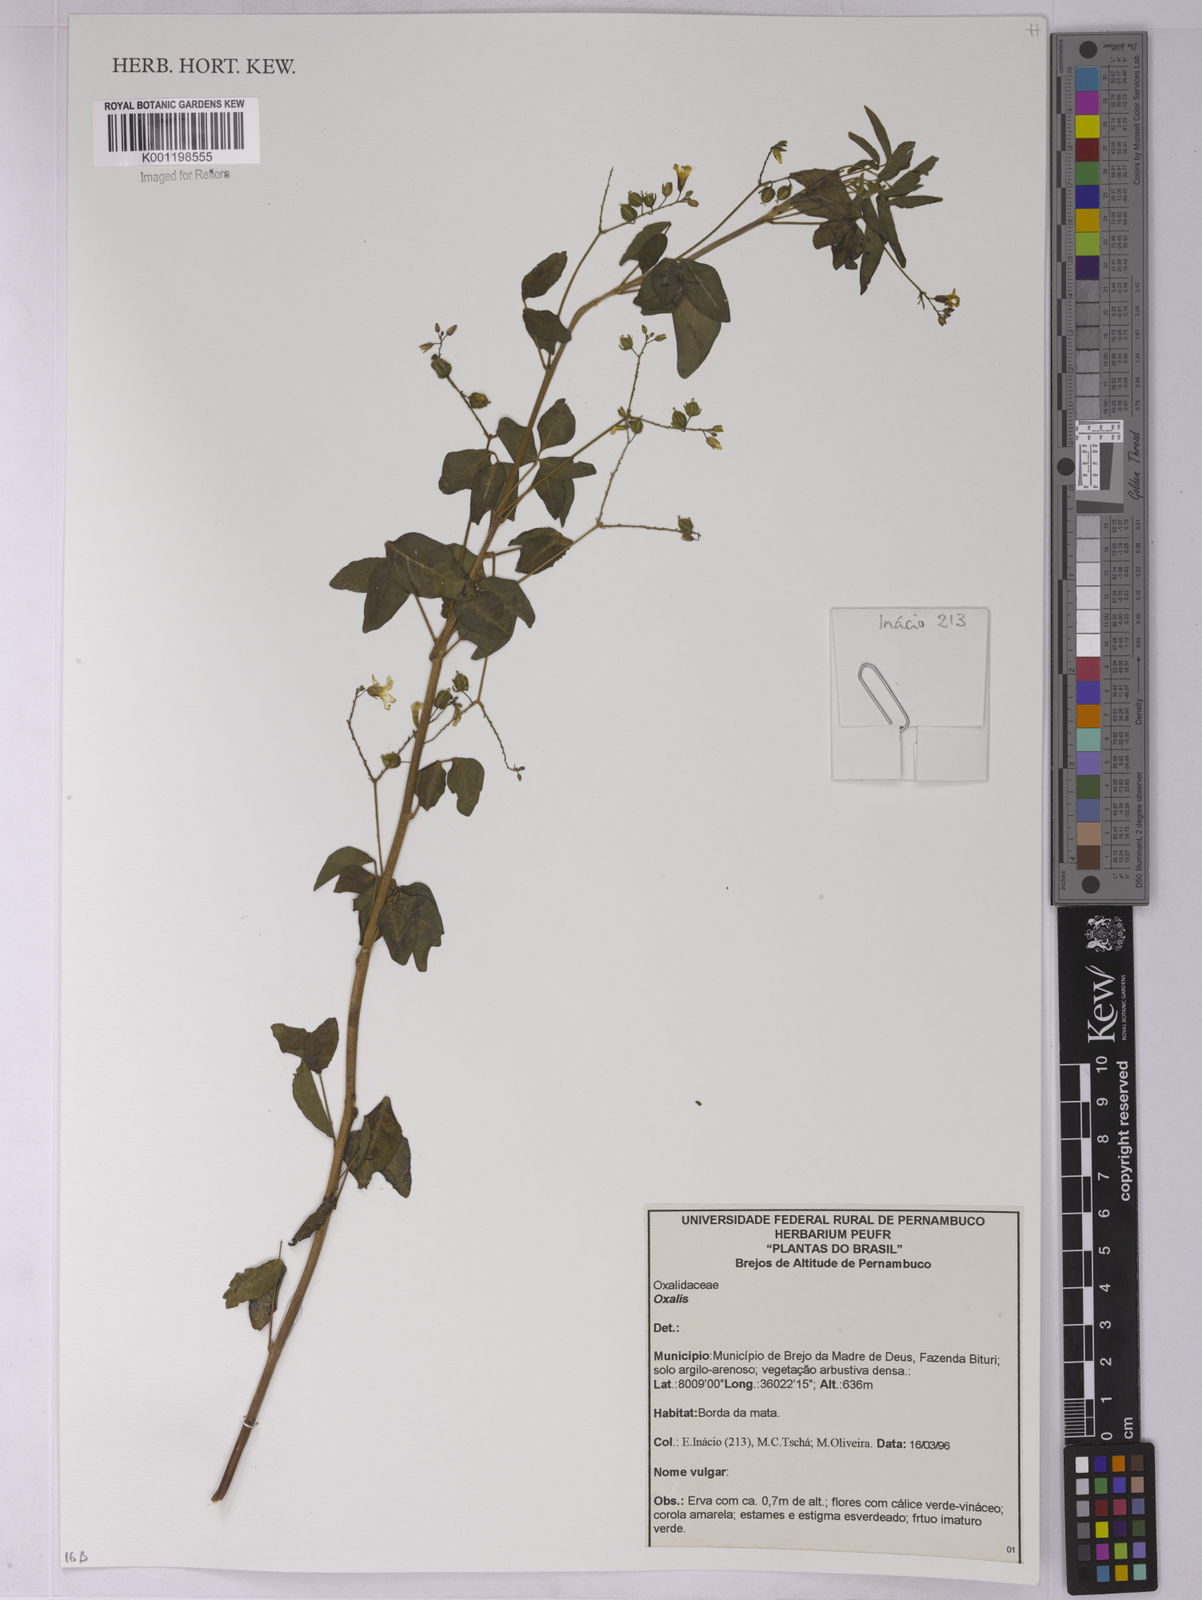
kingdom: Plantae
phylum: Tracheophyta
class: Magnoliopsida
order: Oxalidales
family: Oxalidaceae
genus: Oxalis
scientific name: Oxalis
